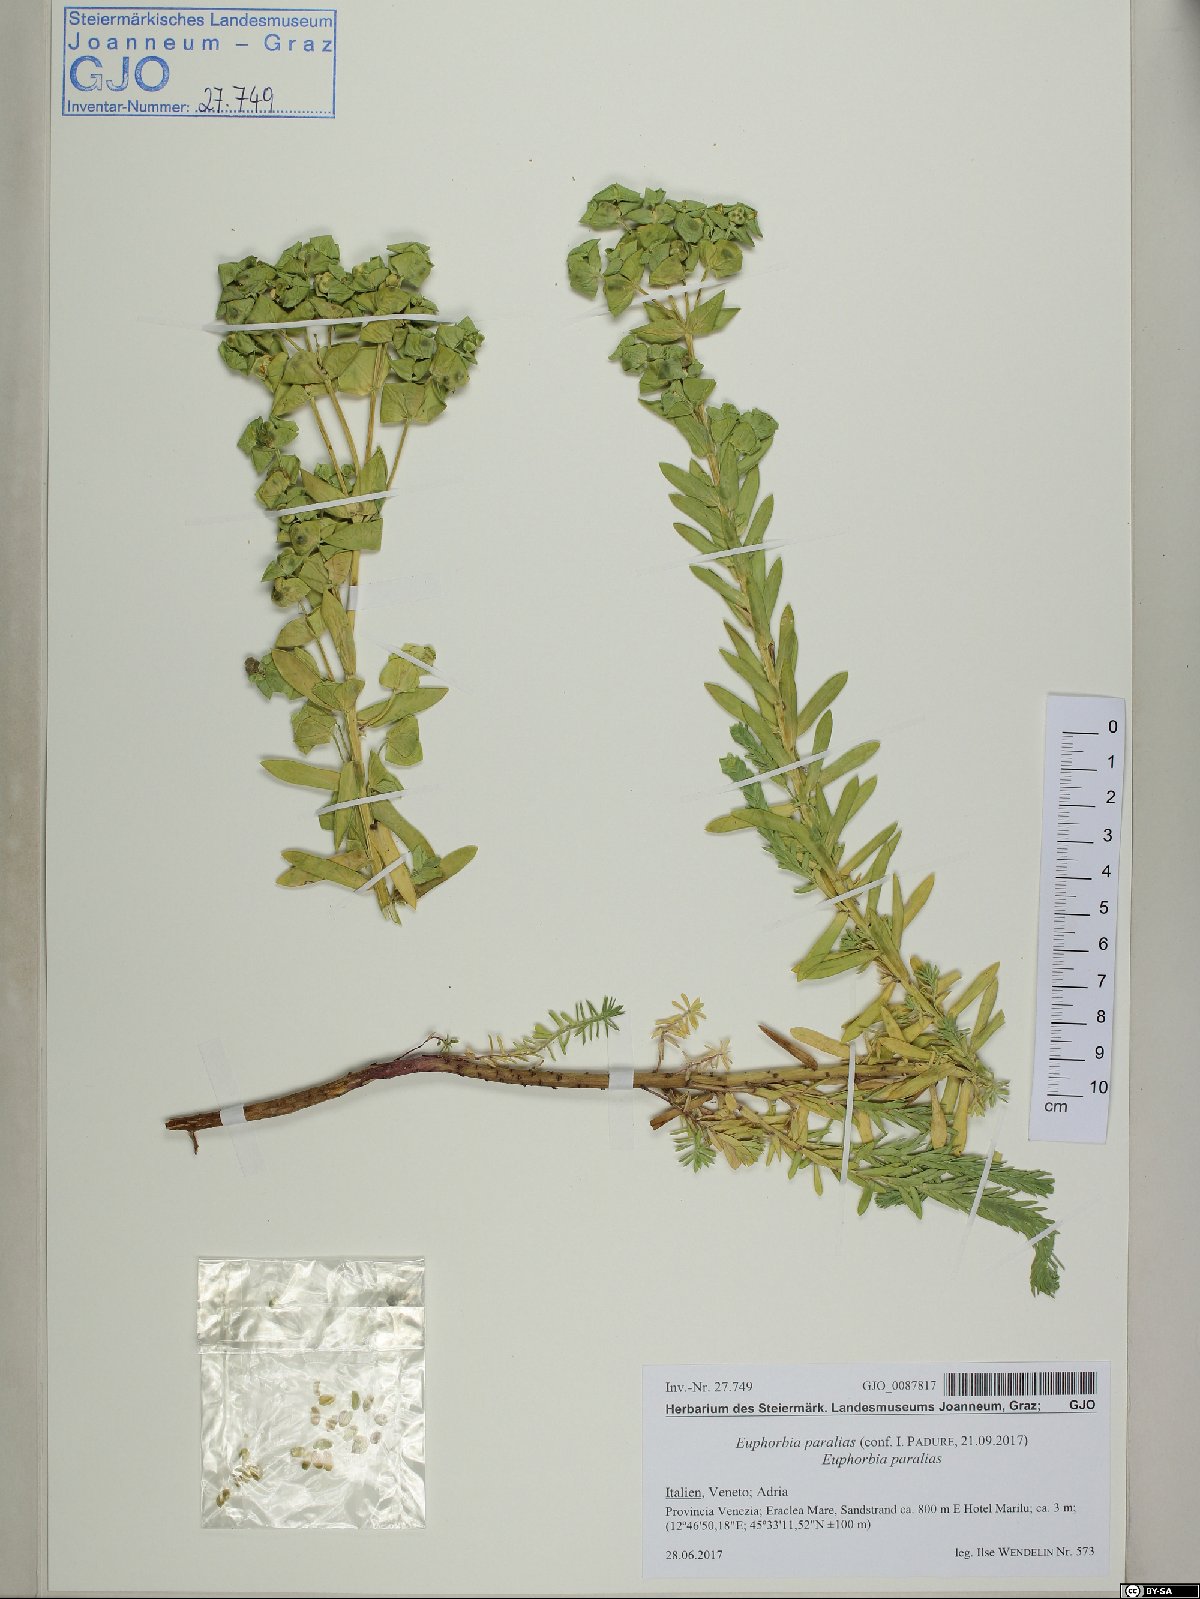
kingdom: Plantae
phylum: Tracheophyta
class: Magnoliopsida
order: Malpighiales
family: Euphorbiaceae
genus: Euphorbia
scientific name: Euphorbia paralias
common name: Sea spurge
